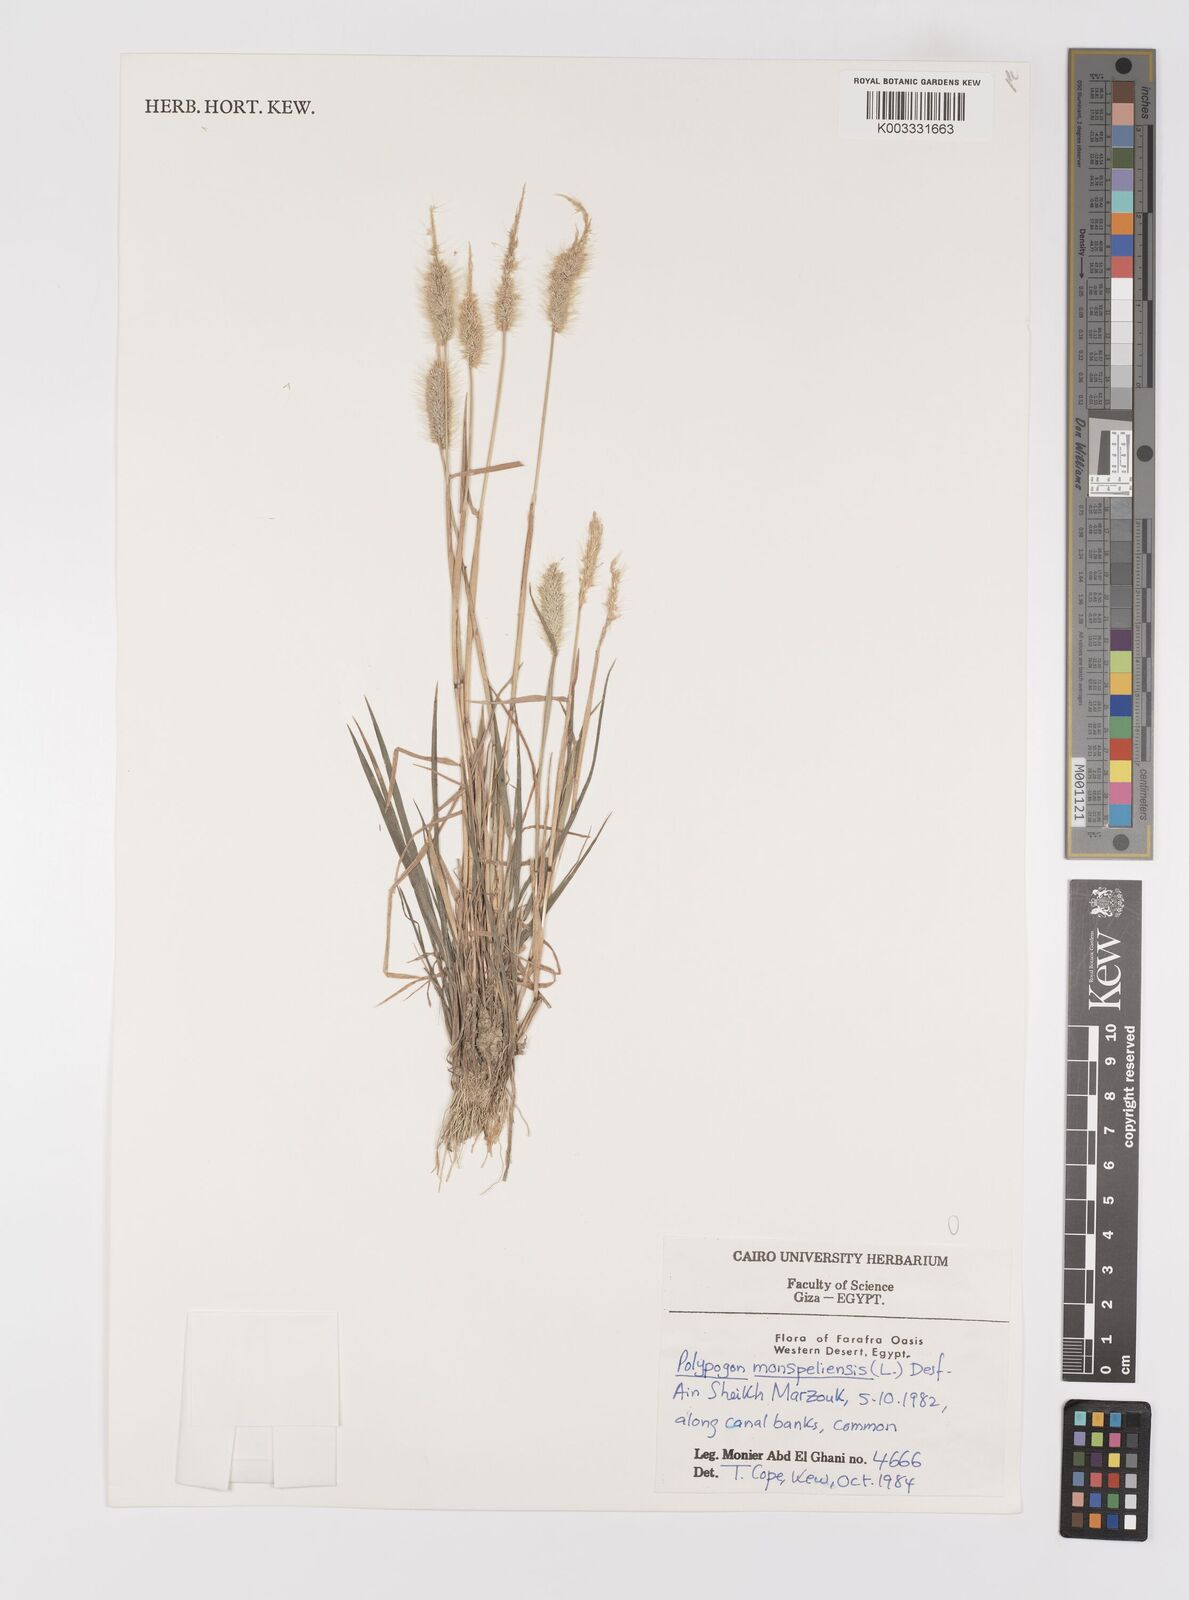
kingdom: Plantae
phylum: Tracheophyta
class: Liliopsida
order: Poales
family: Poaceae
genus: Polypogon
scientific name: Polypogon monspeliensis
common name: Annual rabbitsfoot grass
